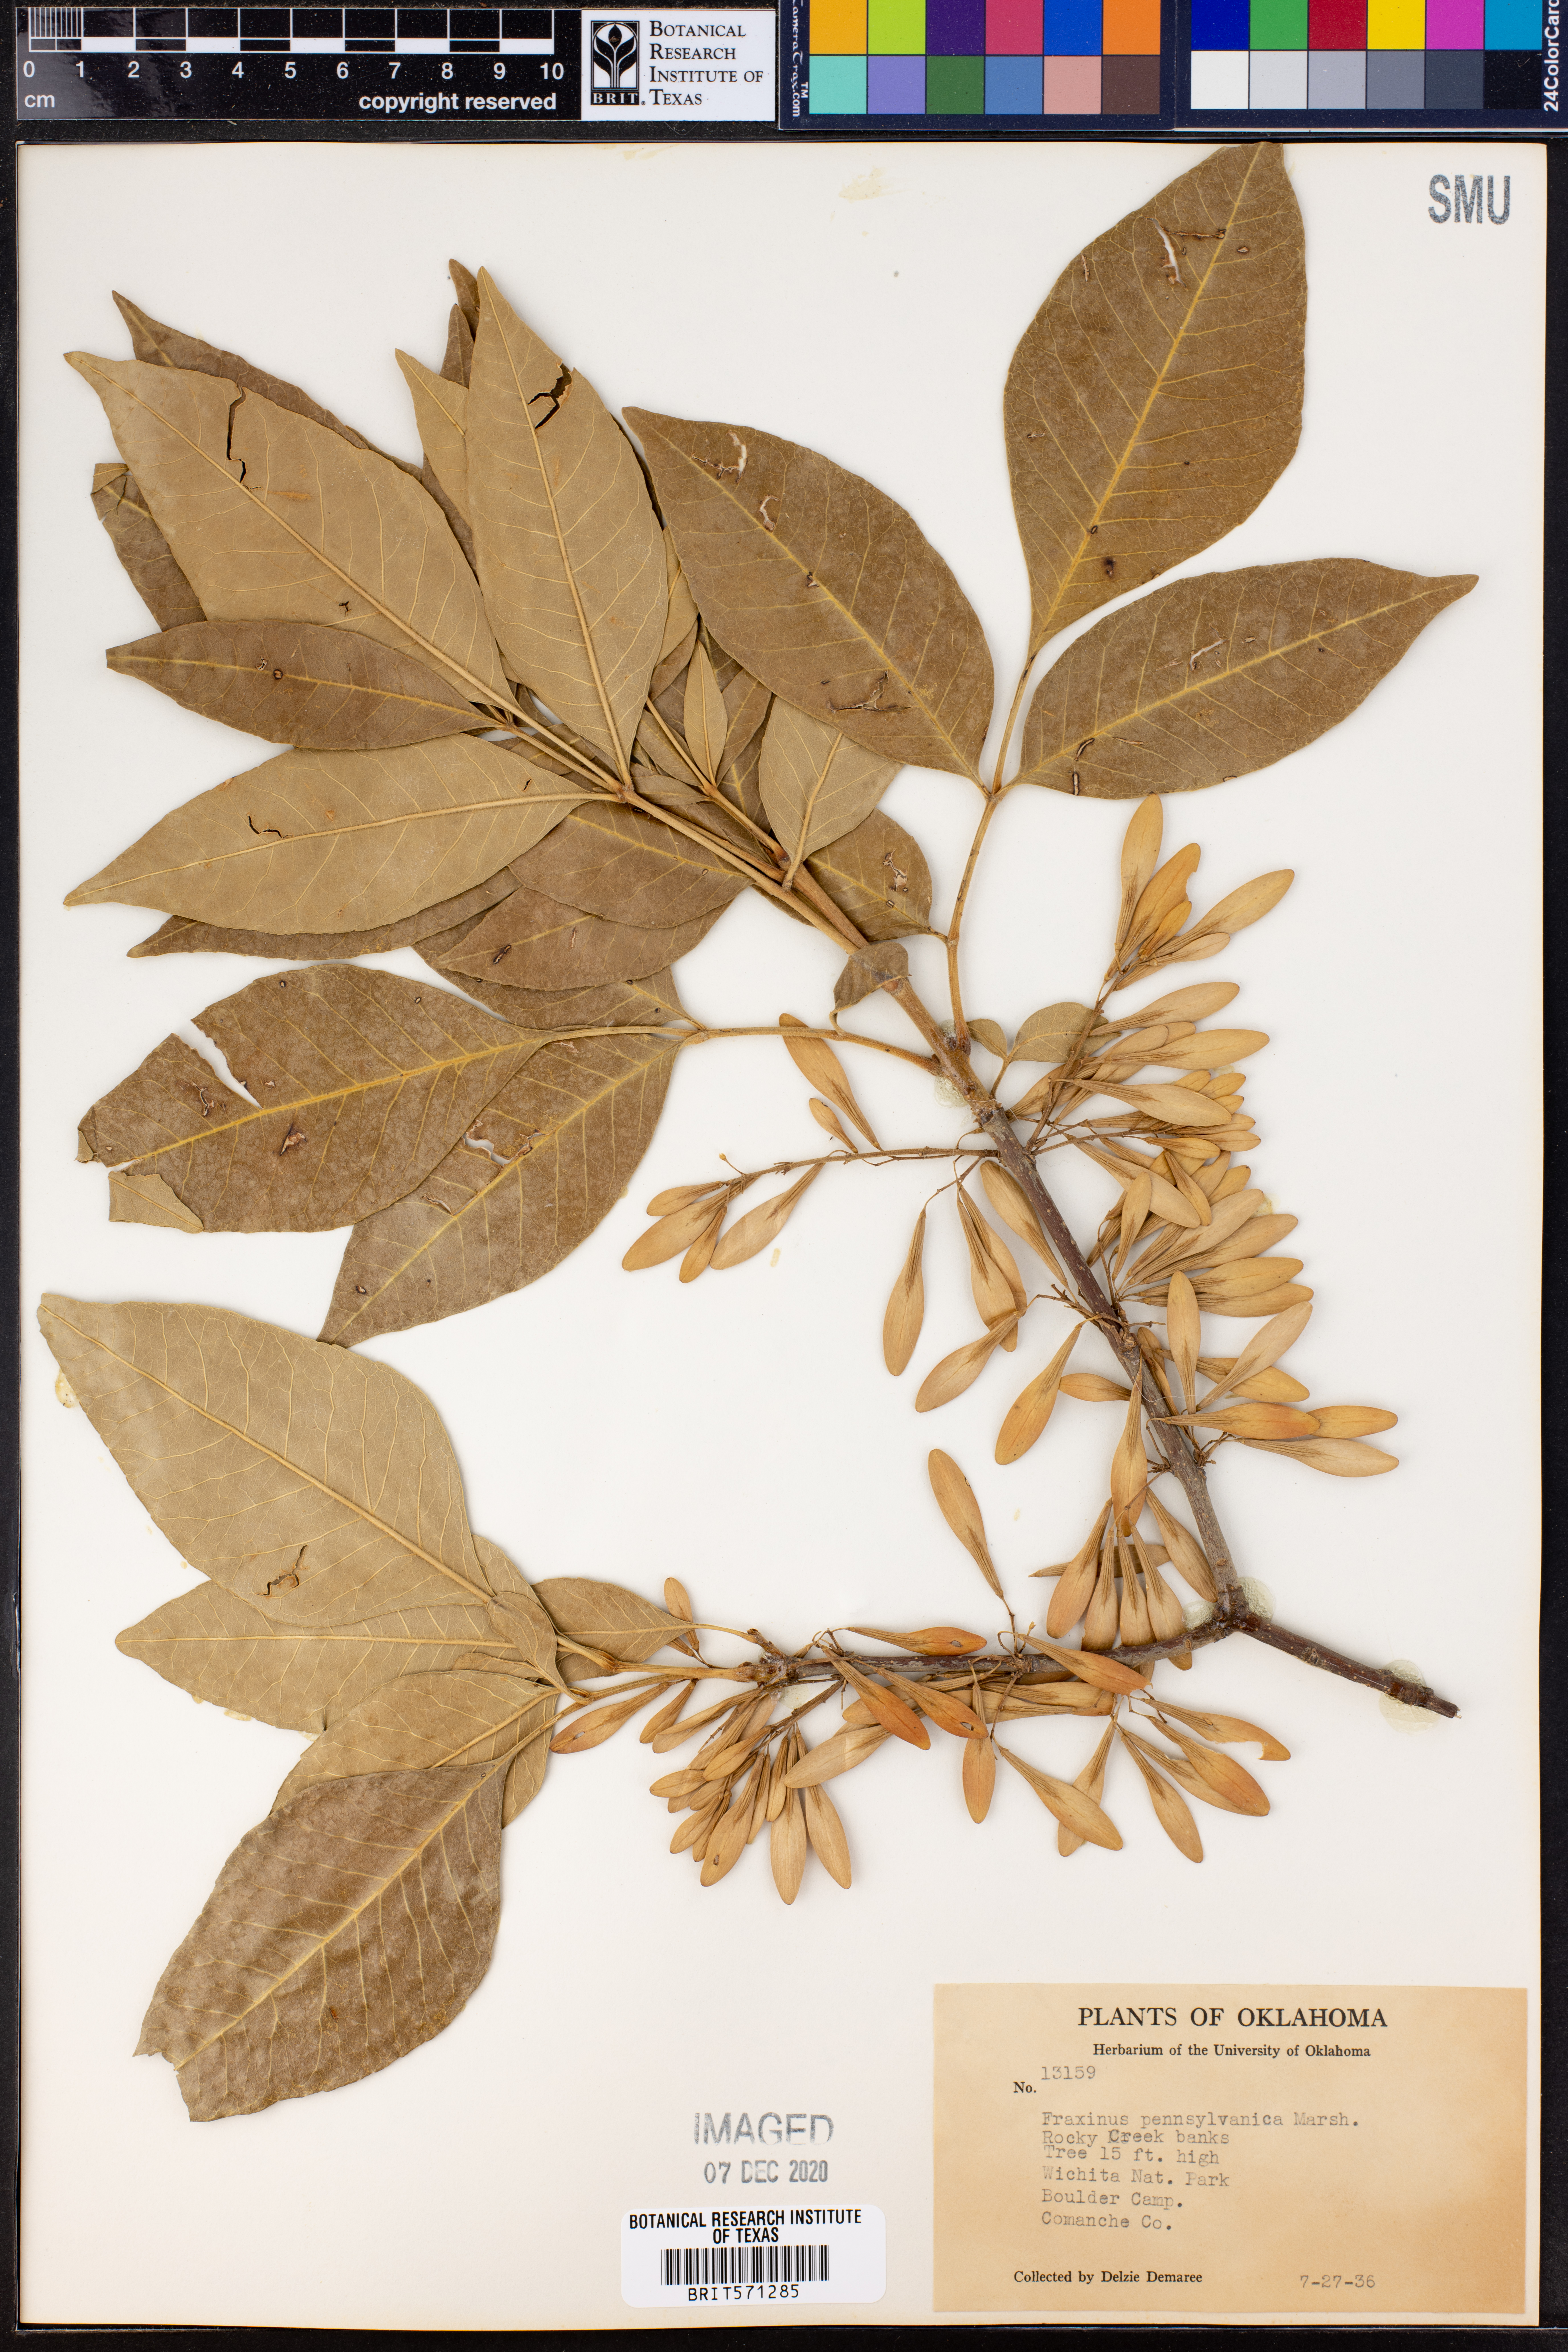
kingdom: Plantae
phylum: Tracheophyta
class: Magnoliopsida
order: Lamiales
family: Oleaceae
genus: Fraxinus
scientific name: Fraxinus pennsylvanica
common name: Green ash
